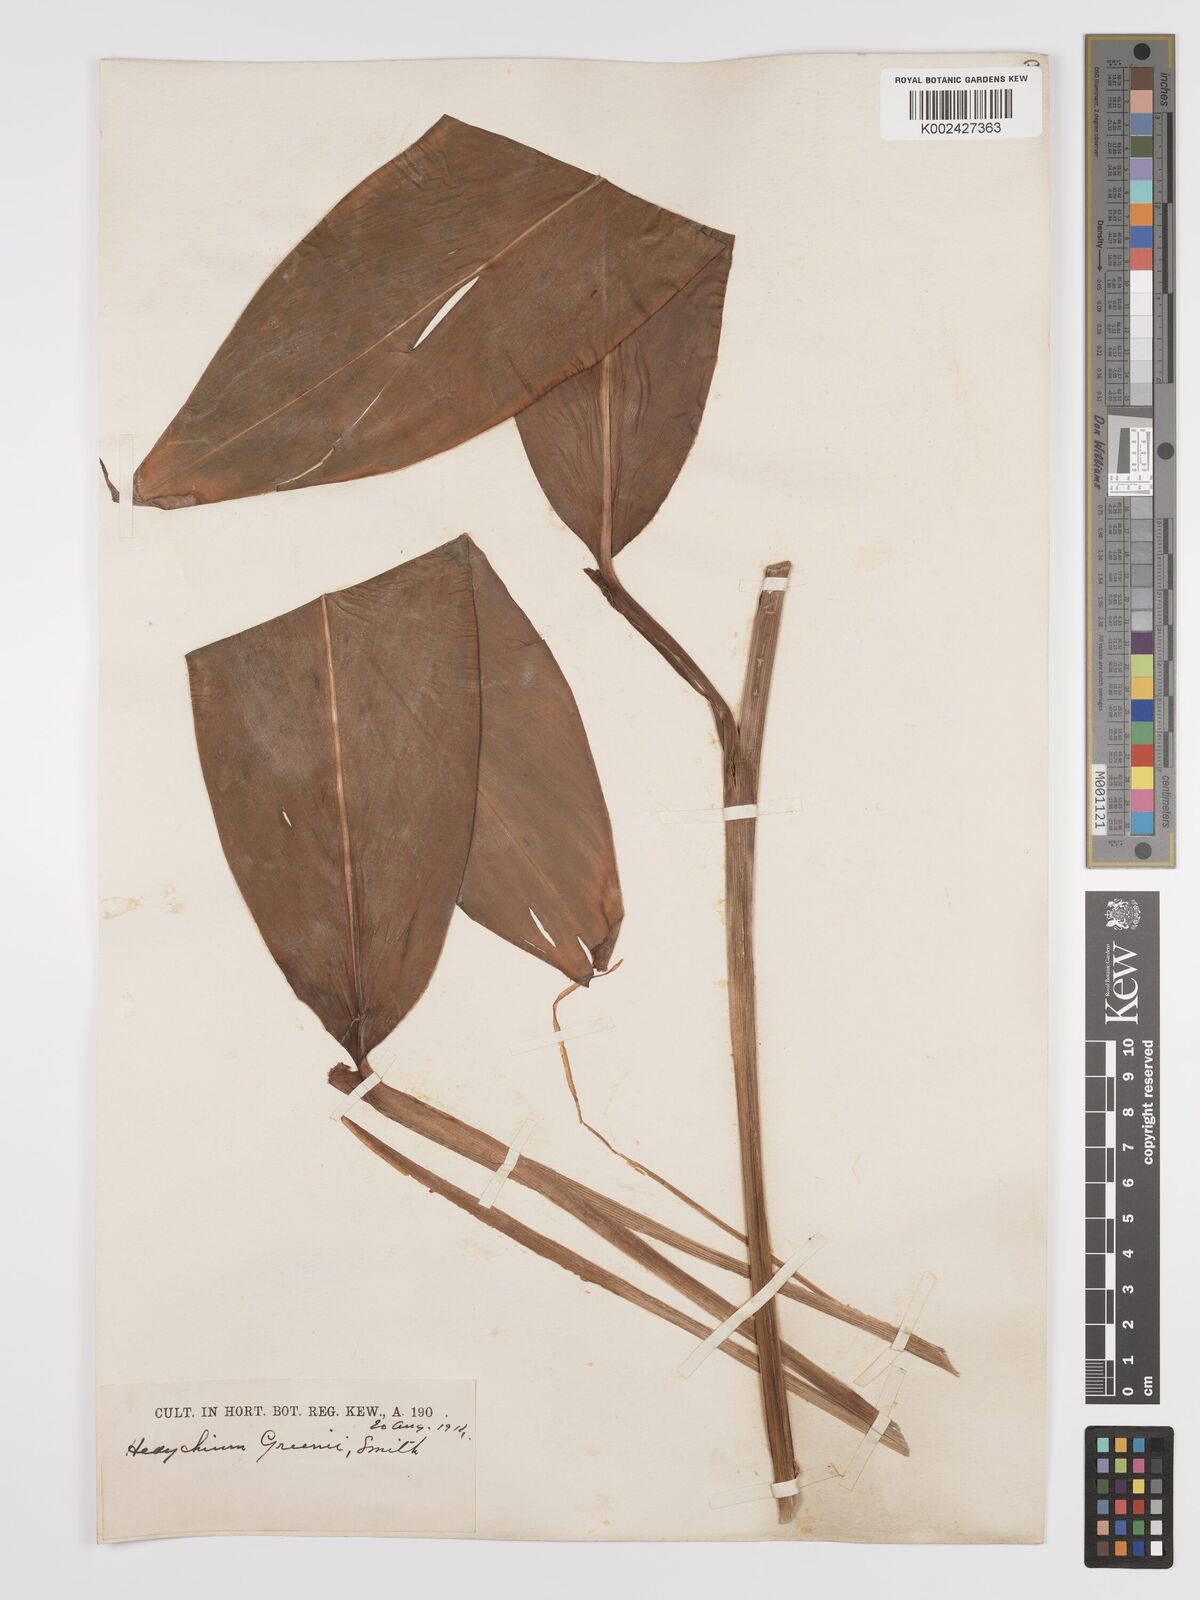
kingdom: Plantae
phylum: Tracheophyta
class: Liliopsida
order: Zingiberales
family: Zingiberaceae
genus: Hedychium
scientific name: Hedychium greenii
